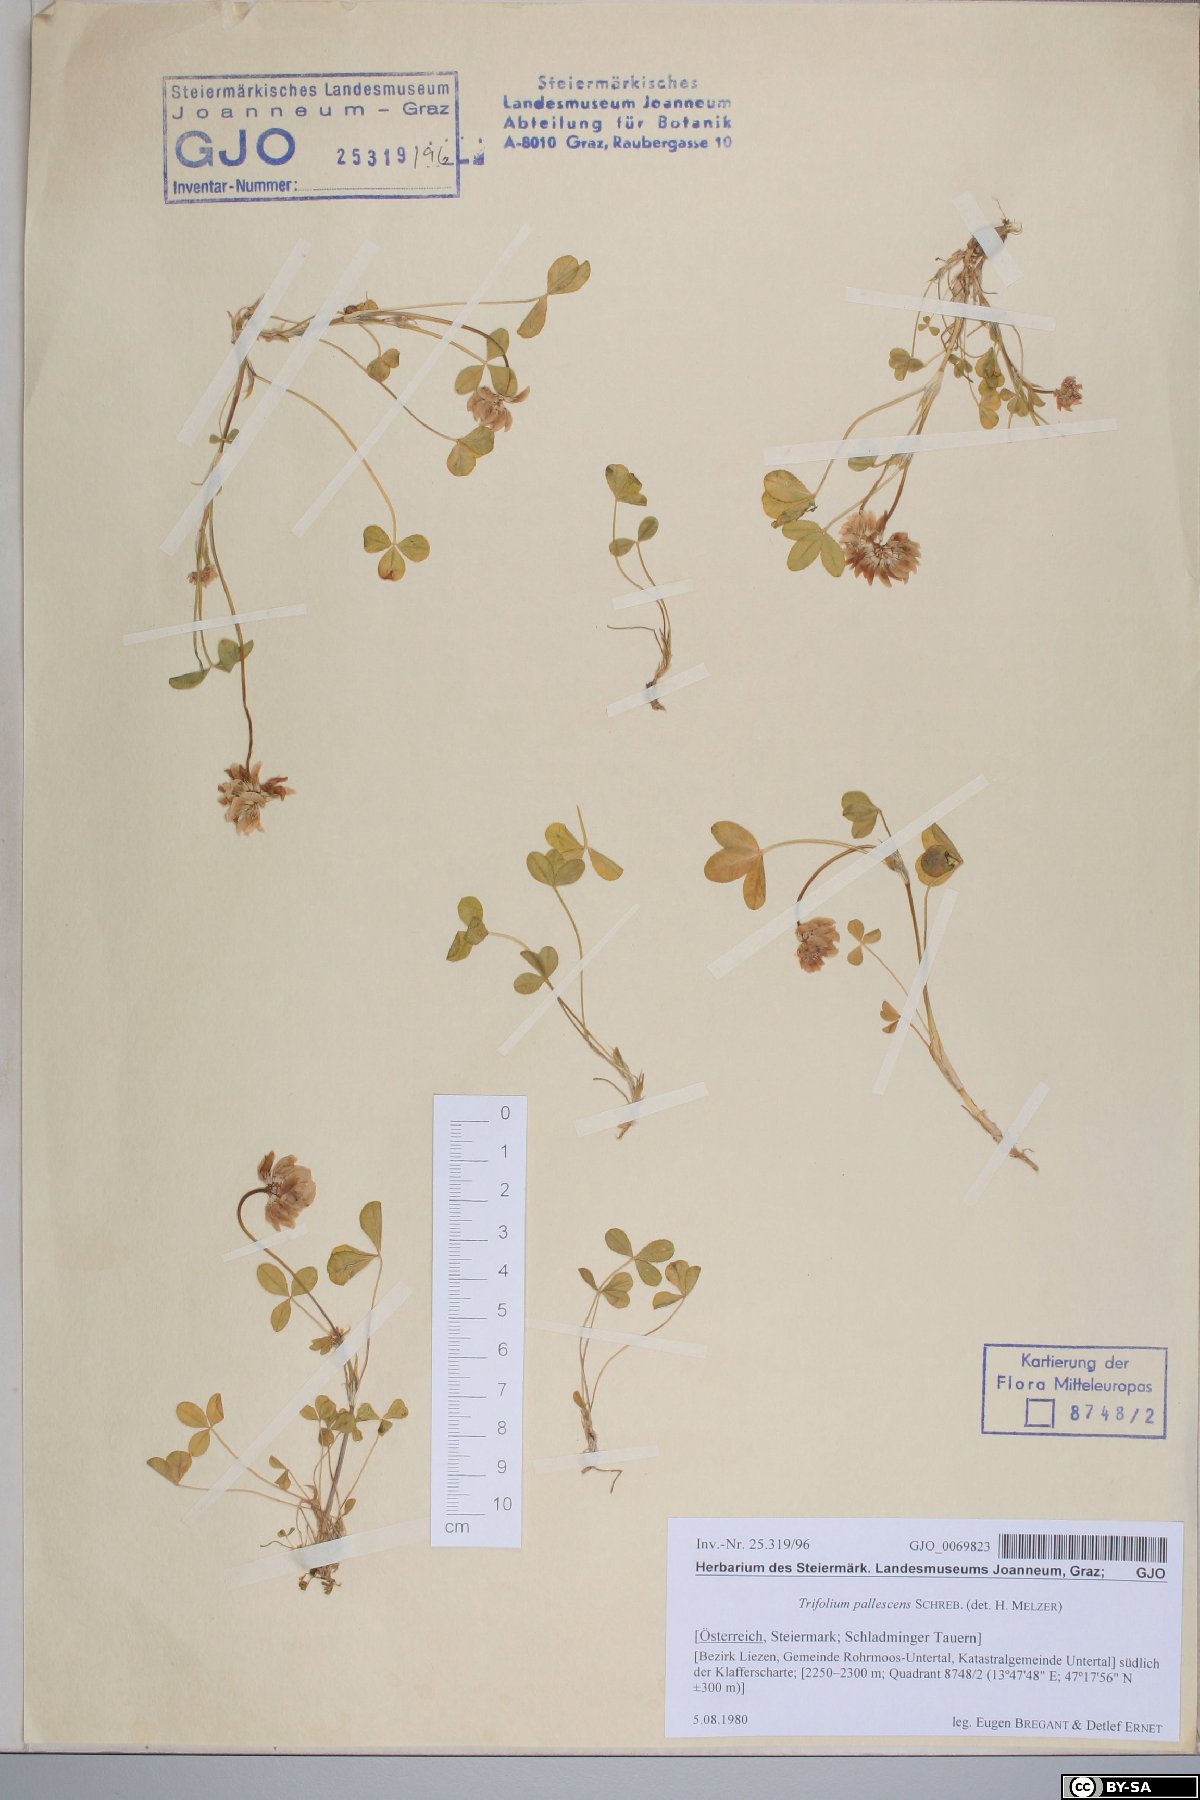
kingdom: Plantae
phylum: Tracheophyta
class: Magnoliopsida
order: Fabales
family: Fabaceae
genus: Trifolium
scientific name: Trifolium pallescens
